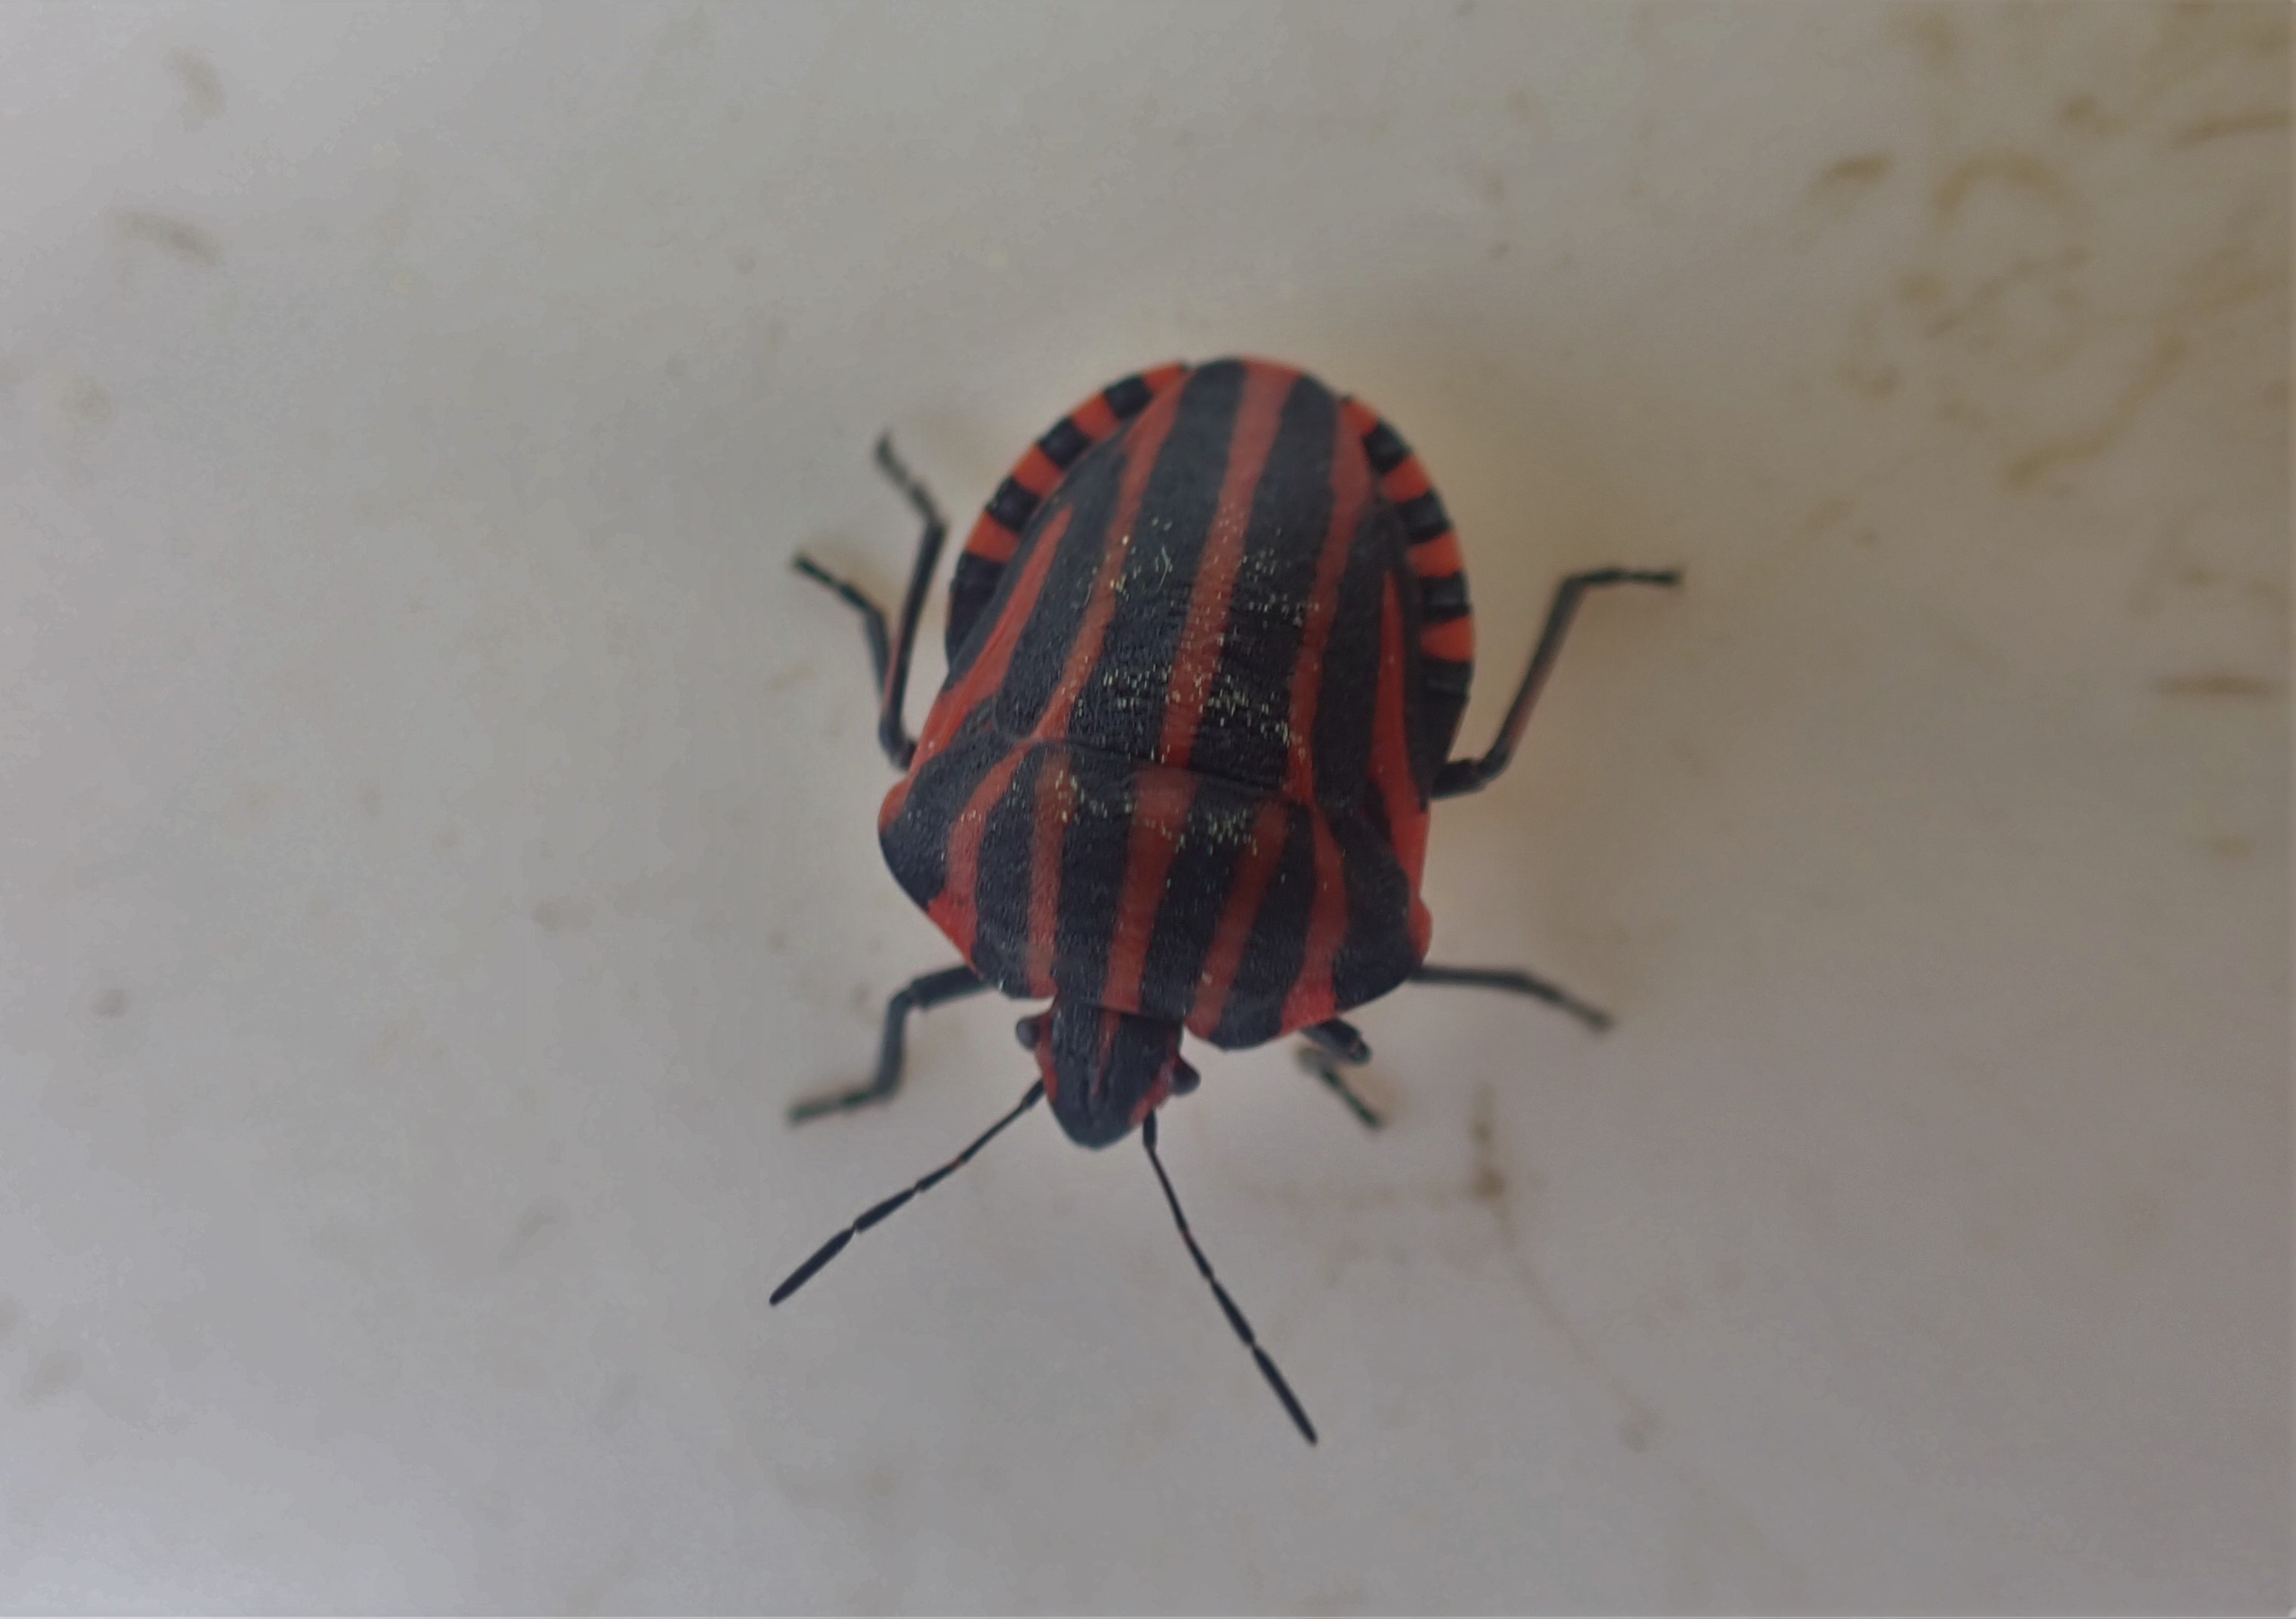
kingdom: Animalia
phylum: Arthropoda
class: Insecta
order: Hemiptera
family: Pentatomidae
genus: Graphosoma
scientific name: Graphosoma italicum
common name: Stribetæge
